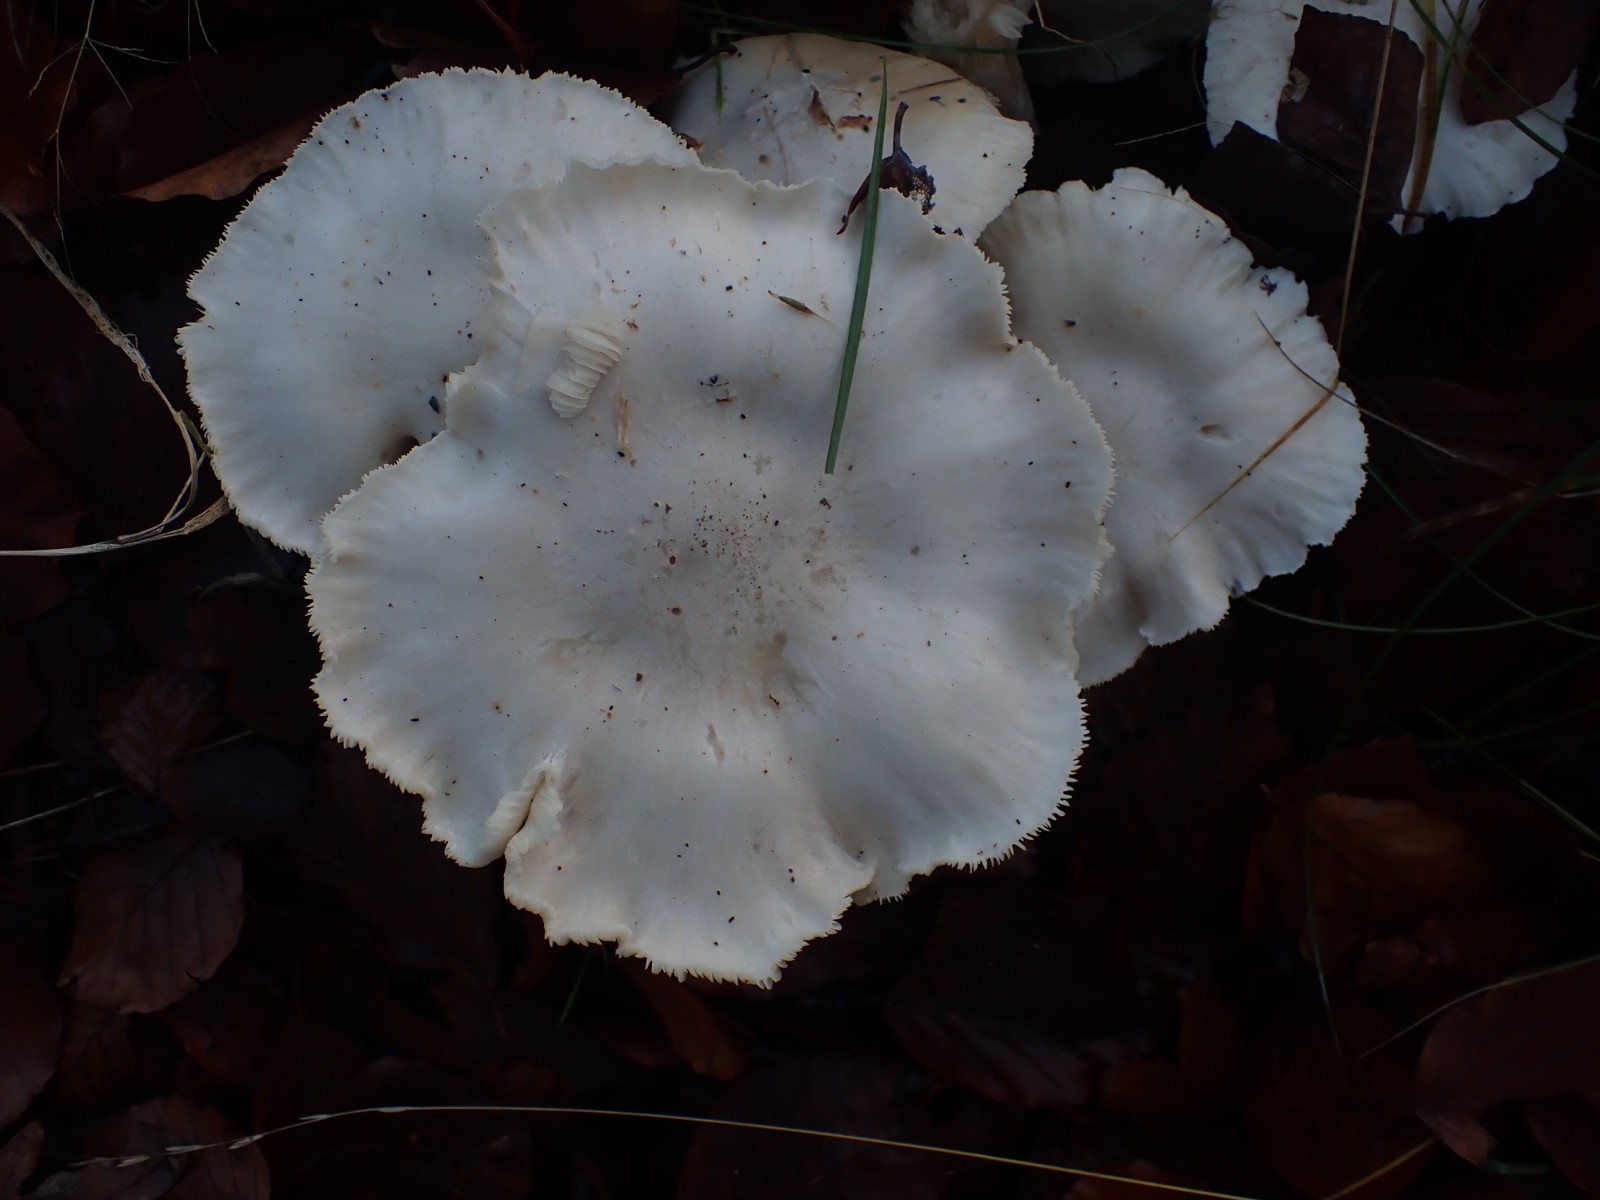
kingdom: Fungi
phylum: Basidiomycota
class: Agaricomycetes
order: Agaricales
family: Tricholomataceae
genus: Clitocybe
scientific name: Clitocybe nebularis
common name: Clouded agaric
